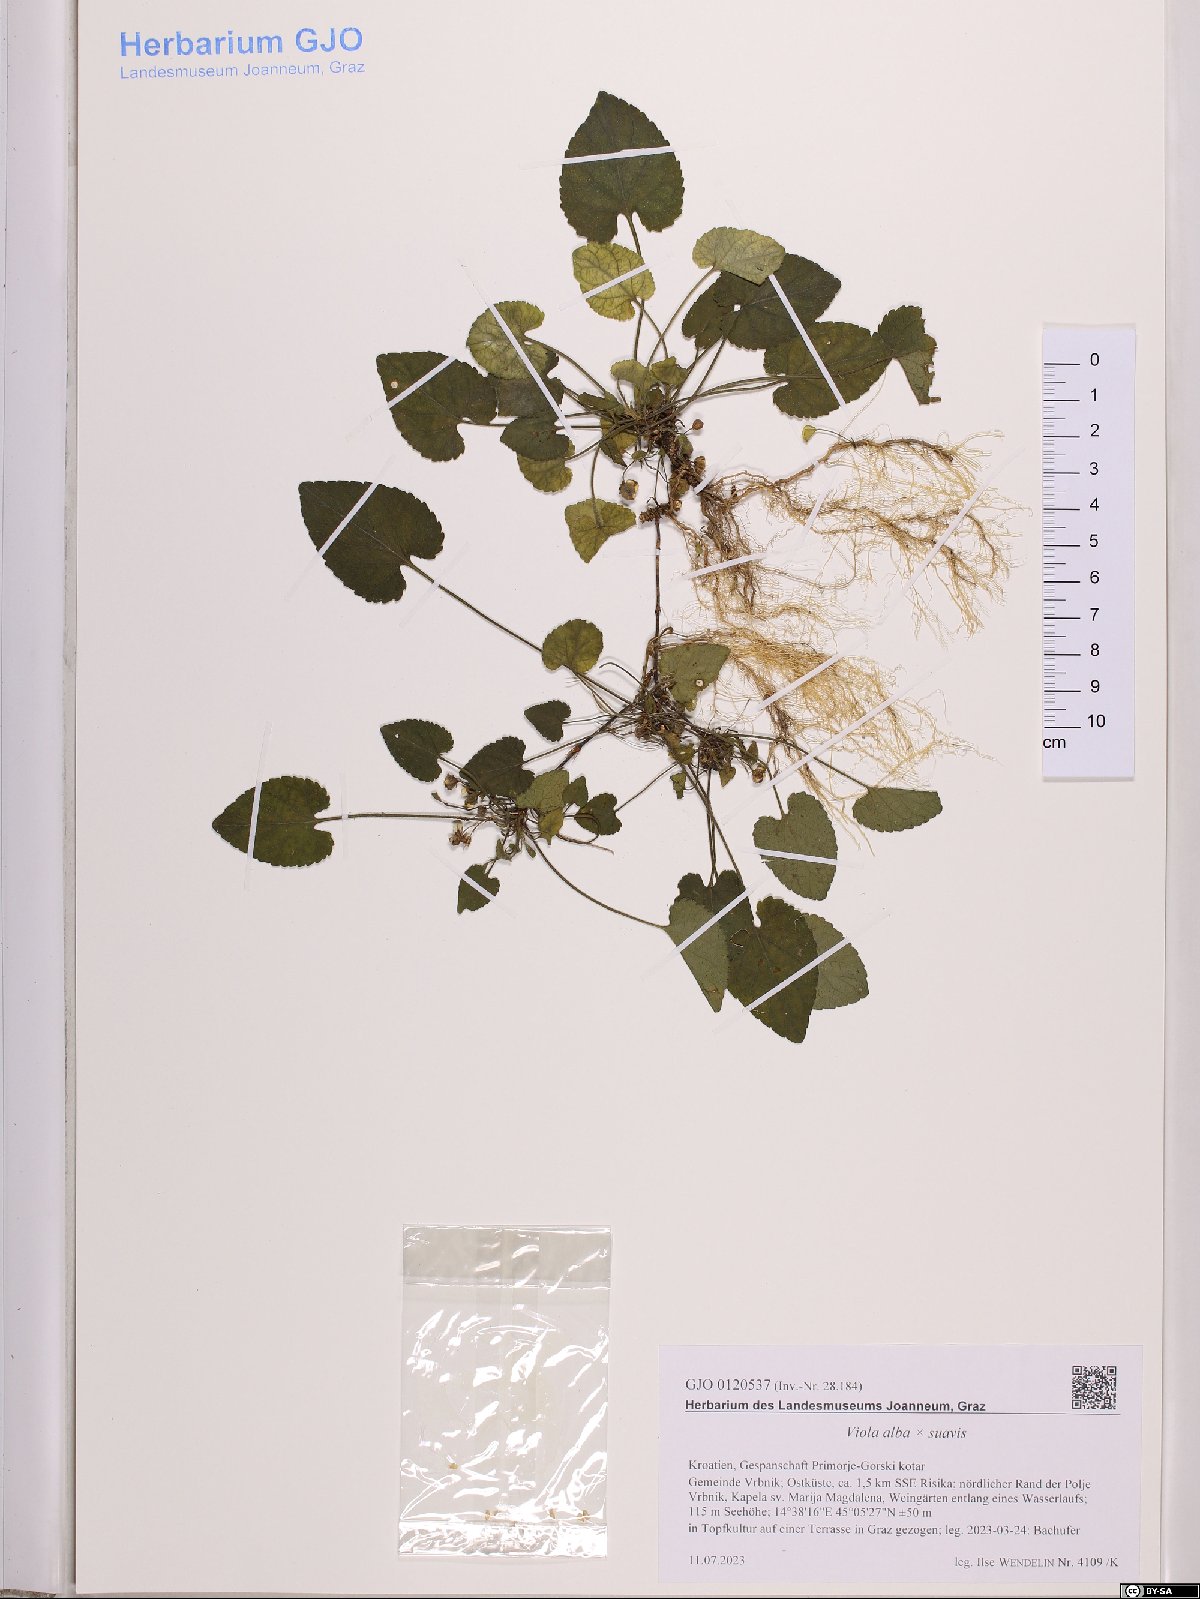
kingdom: Plantae
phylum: Tracheophyta
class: Magnoliopsida
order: Malpighiales
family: Violaceae
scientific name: Violaceae
